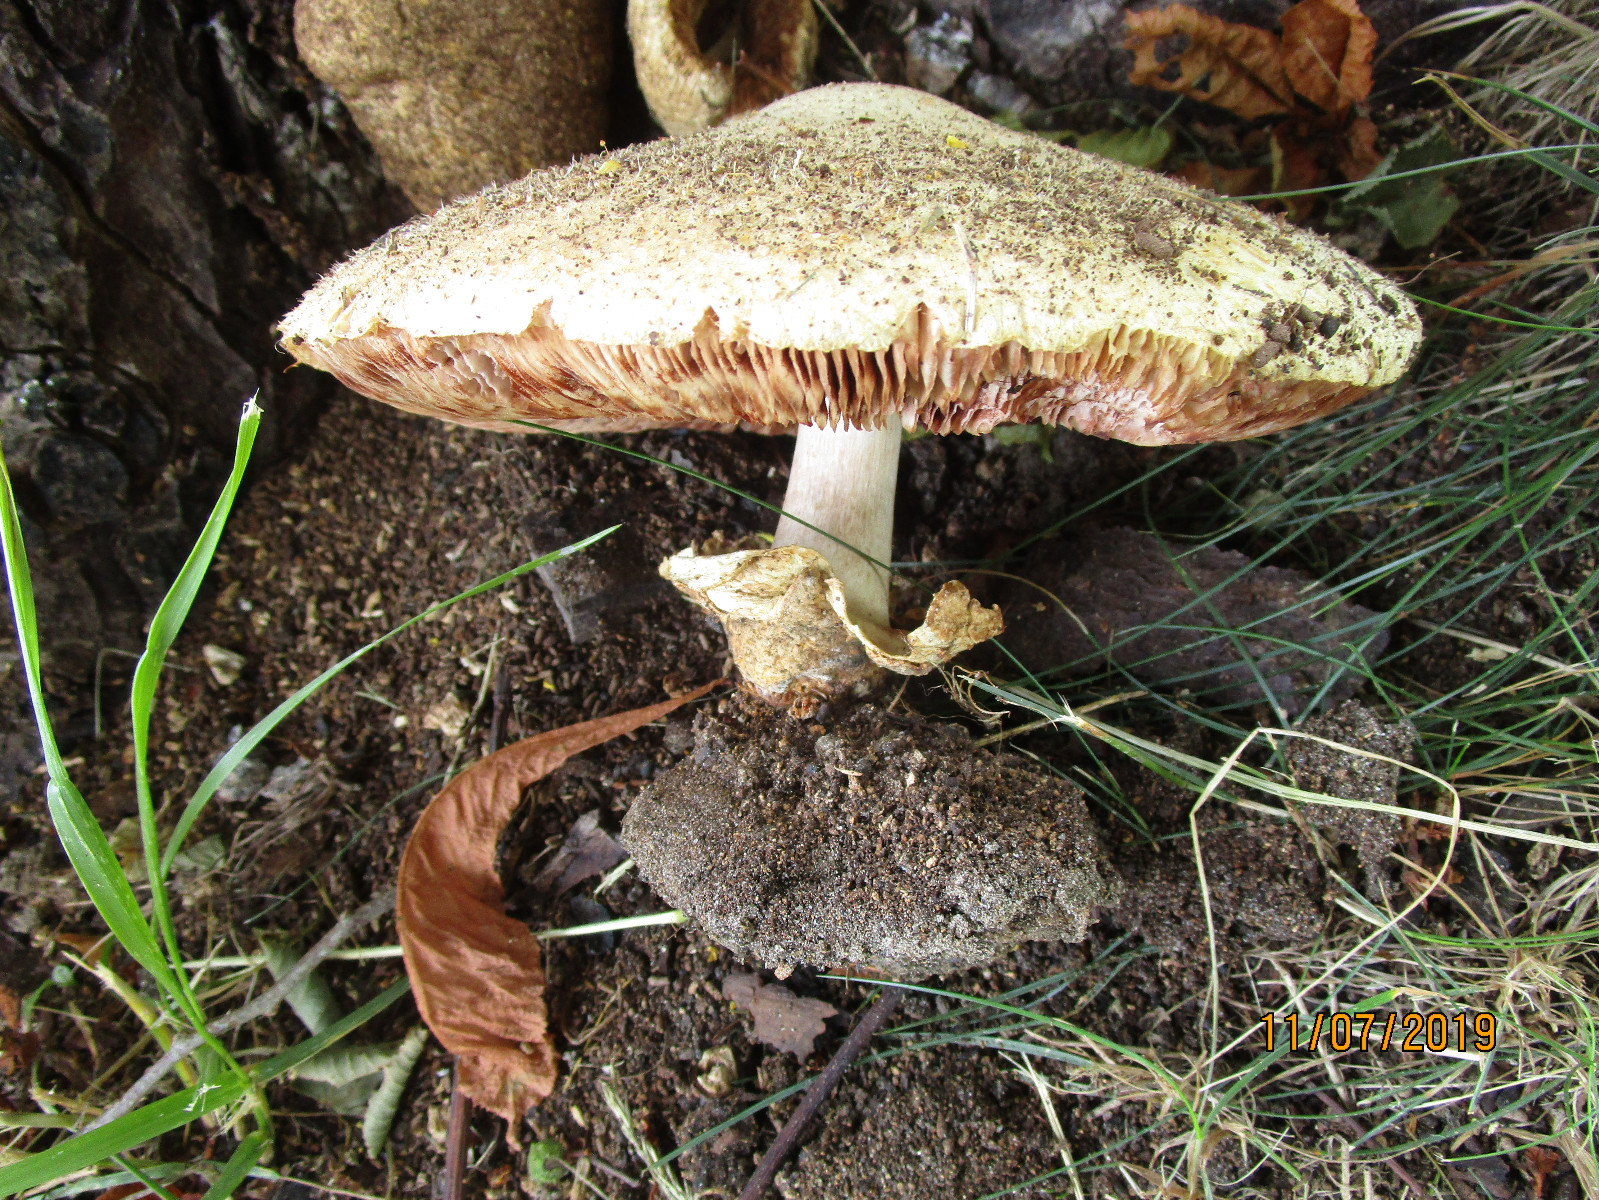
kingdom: Fungi
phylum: Basidiomycota
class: Agaricomycetes
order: Agaricales
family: Pluteaceae
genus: Volvariella
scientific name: Volvariella bombycina
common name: silkehåret posesvamp
